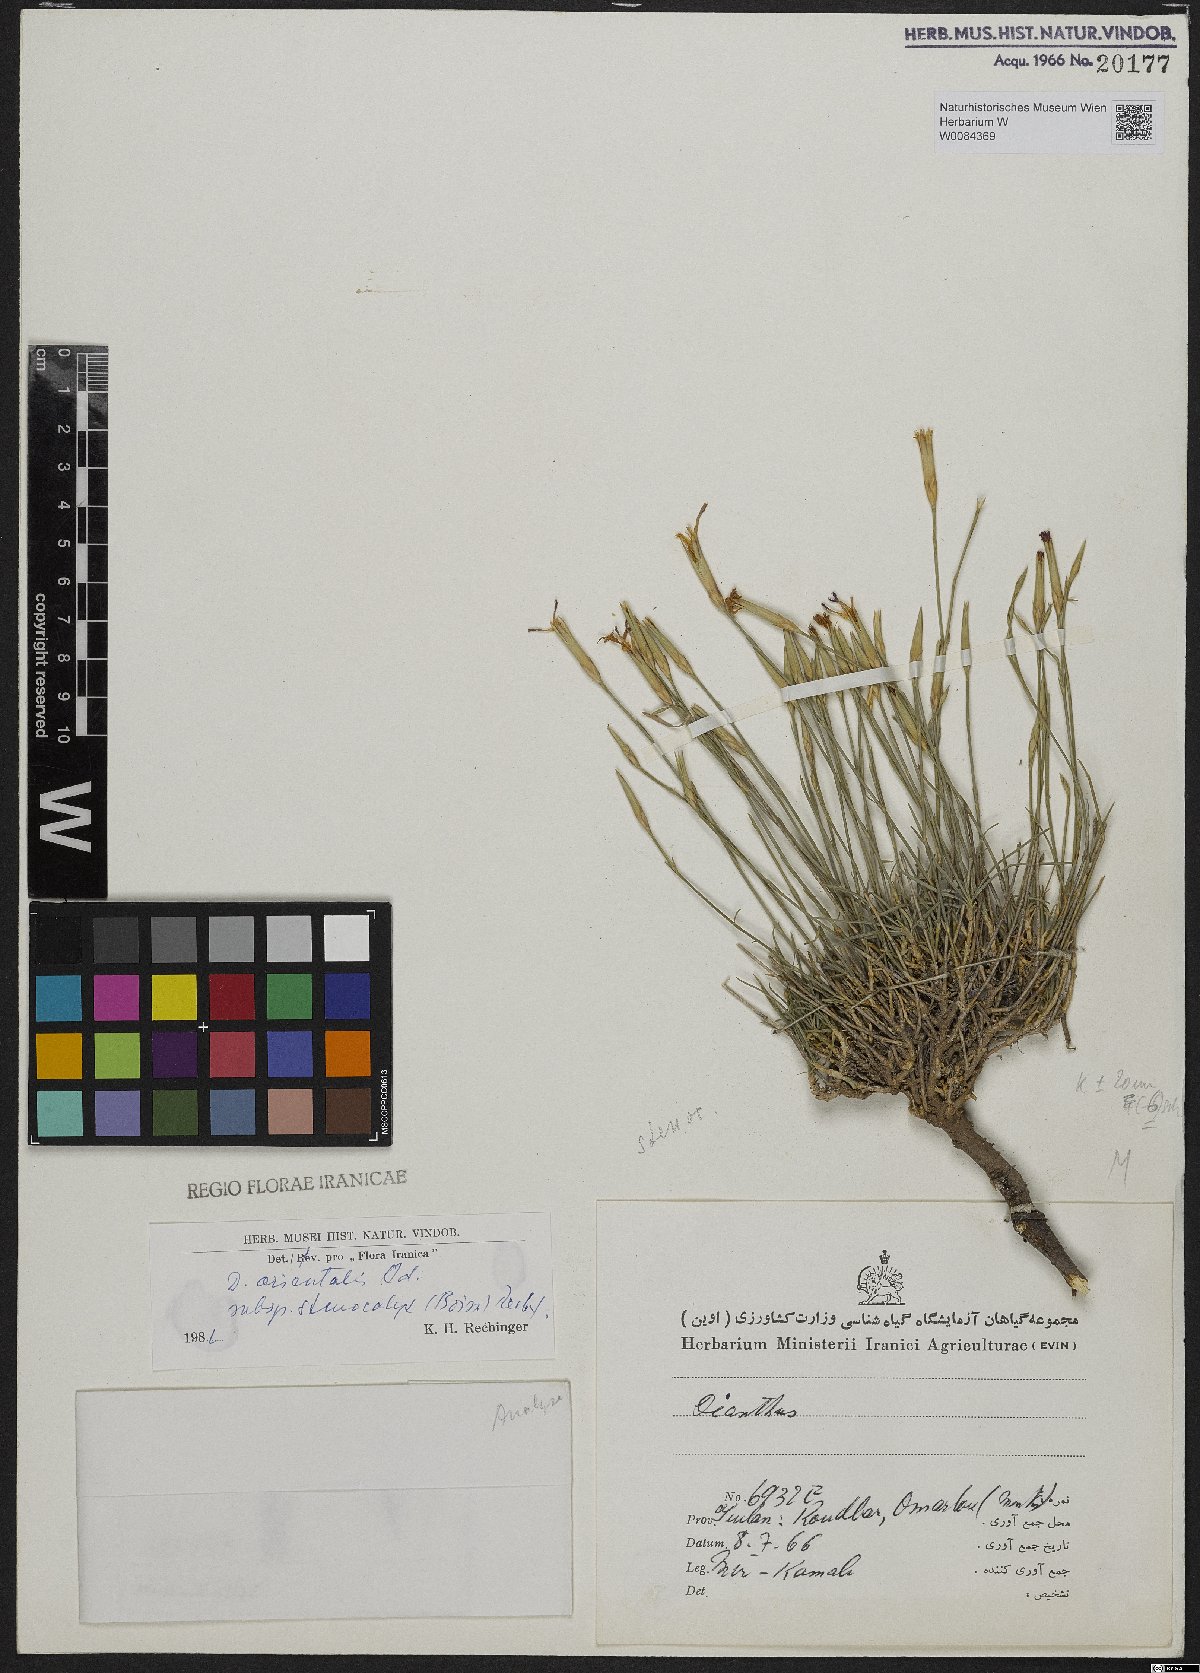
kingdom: Plantae
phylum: Tracheophyta
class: Magnoliopsida
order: Caryophyllales
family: Caryophyllaceae
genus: Dianthus
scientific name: Dianthus orientalis
